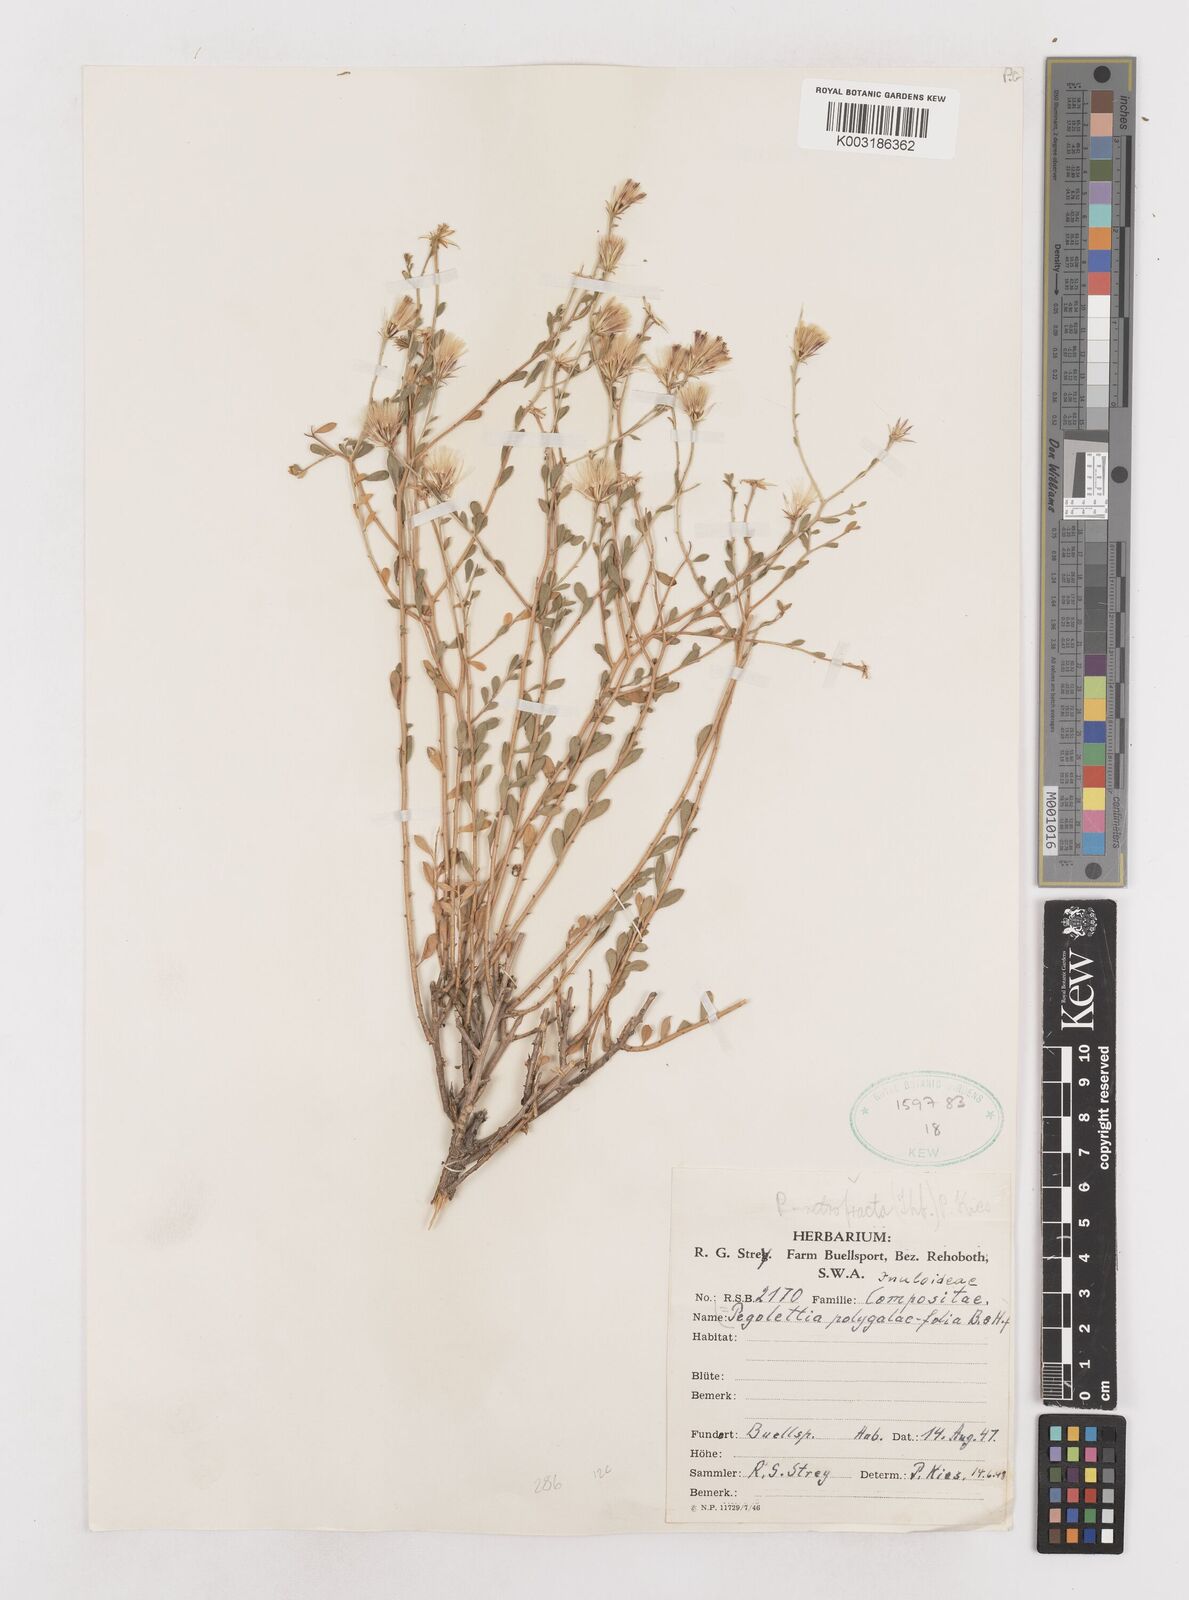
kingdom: Plantae
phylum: Tracheophyta
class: Magnoliopsida
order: Asterales
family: Asteraceae
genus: Pegolettia
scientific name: Pegolettia retrofracta
